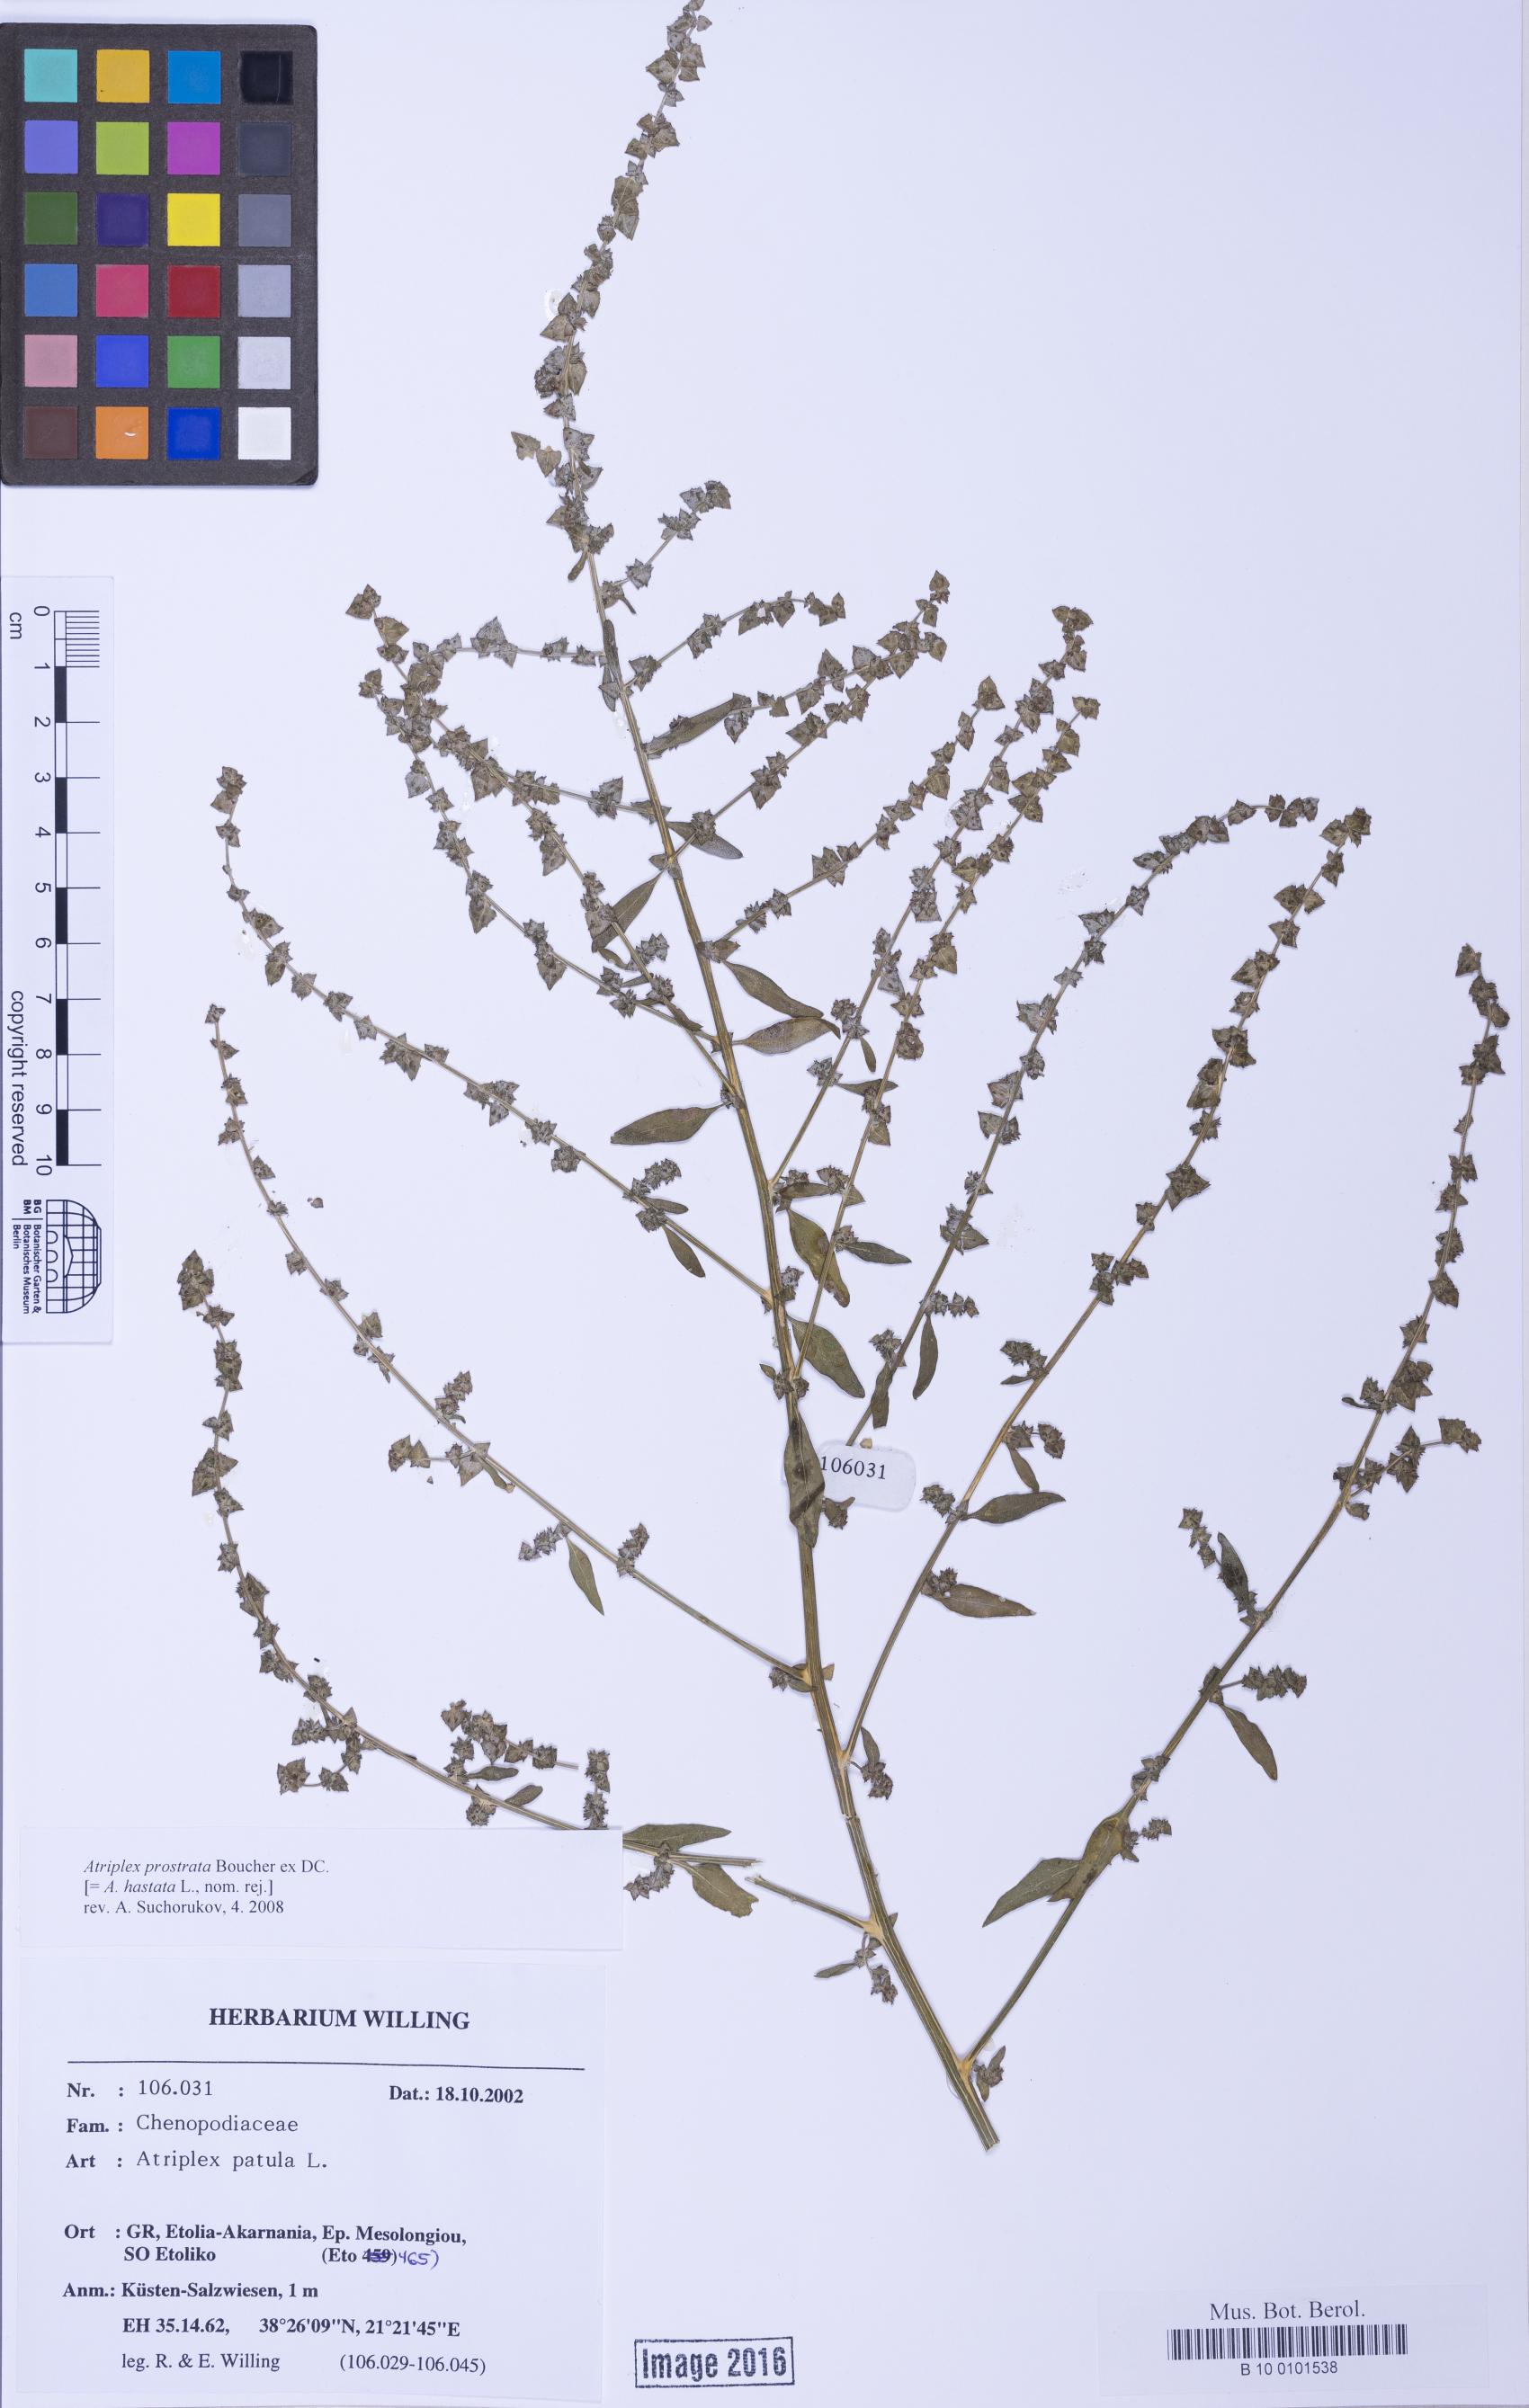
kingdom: Plantae
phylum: Tracheophyta
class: Magnoliopsida
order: Caryophyllales
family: Amaranthaceae
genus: Atriplex
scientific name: Atriplex prostrata
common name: Spear-leaved orache
